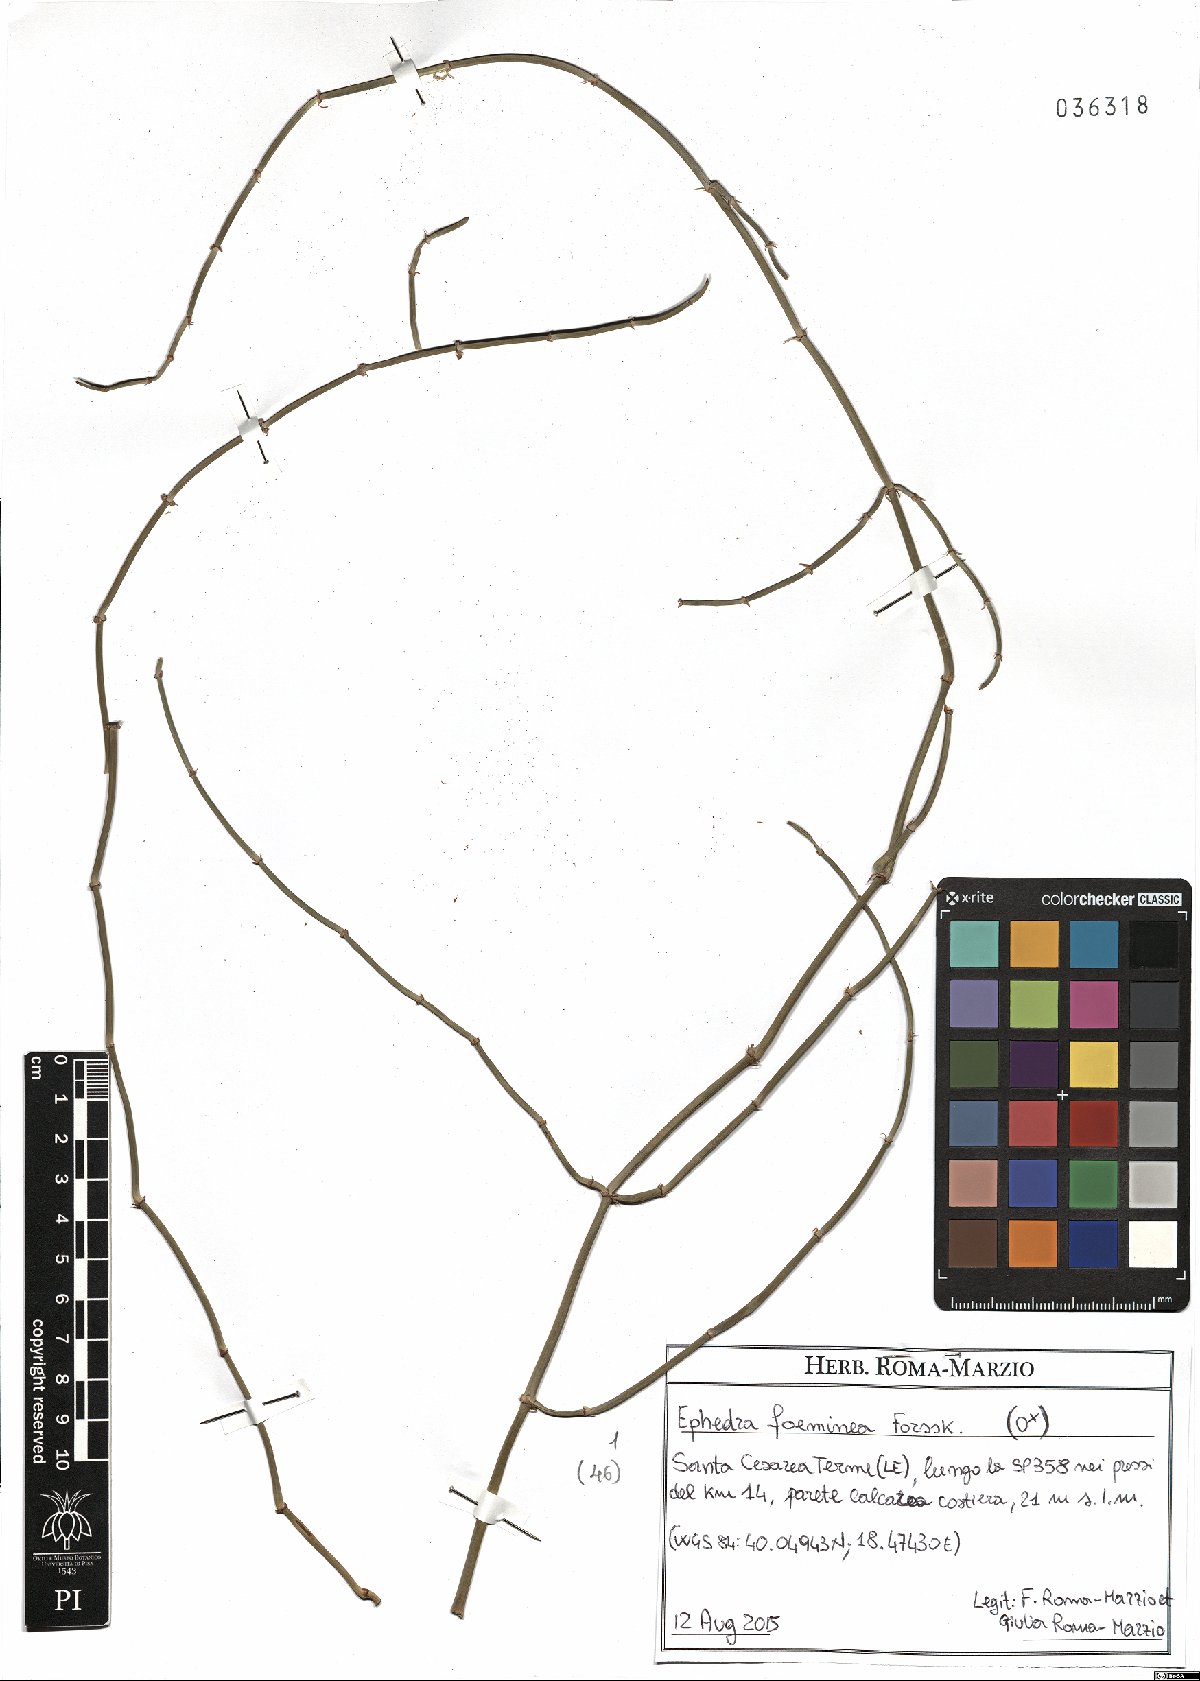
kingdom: Plantae
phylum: Tracheophyta
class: Gnetopsida
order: Ephedrales
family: Ephedraceae
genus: Ephedra
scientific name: Ephedra foeminea
